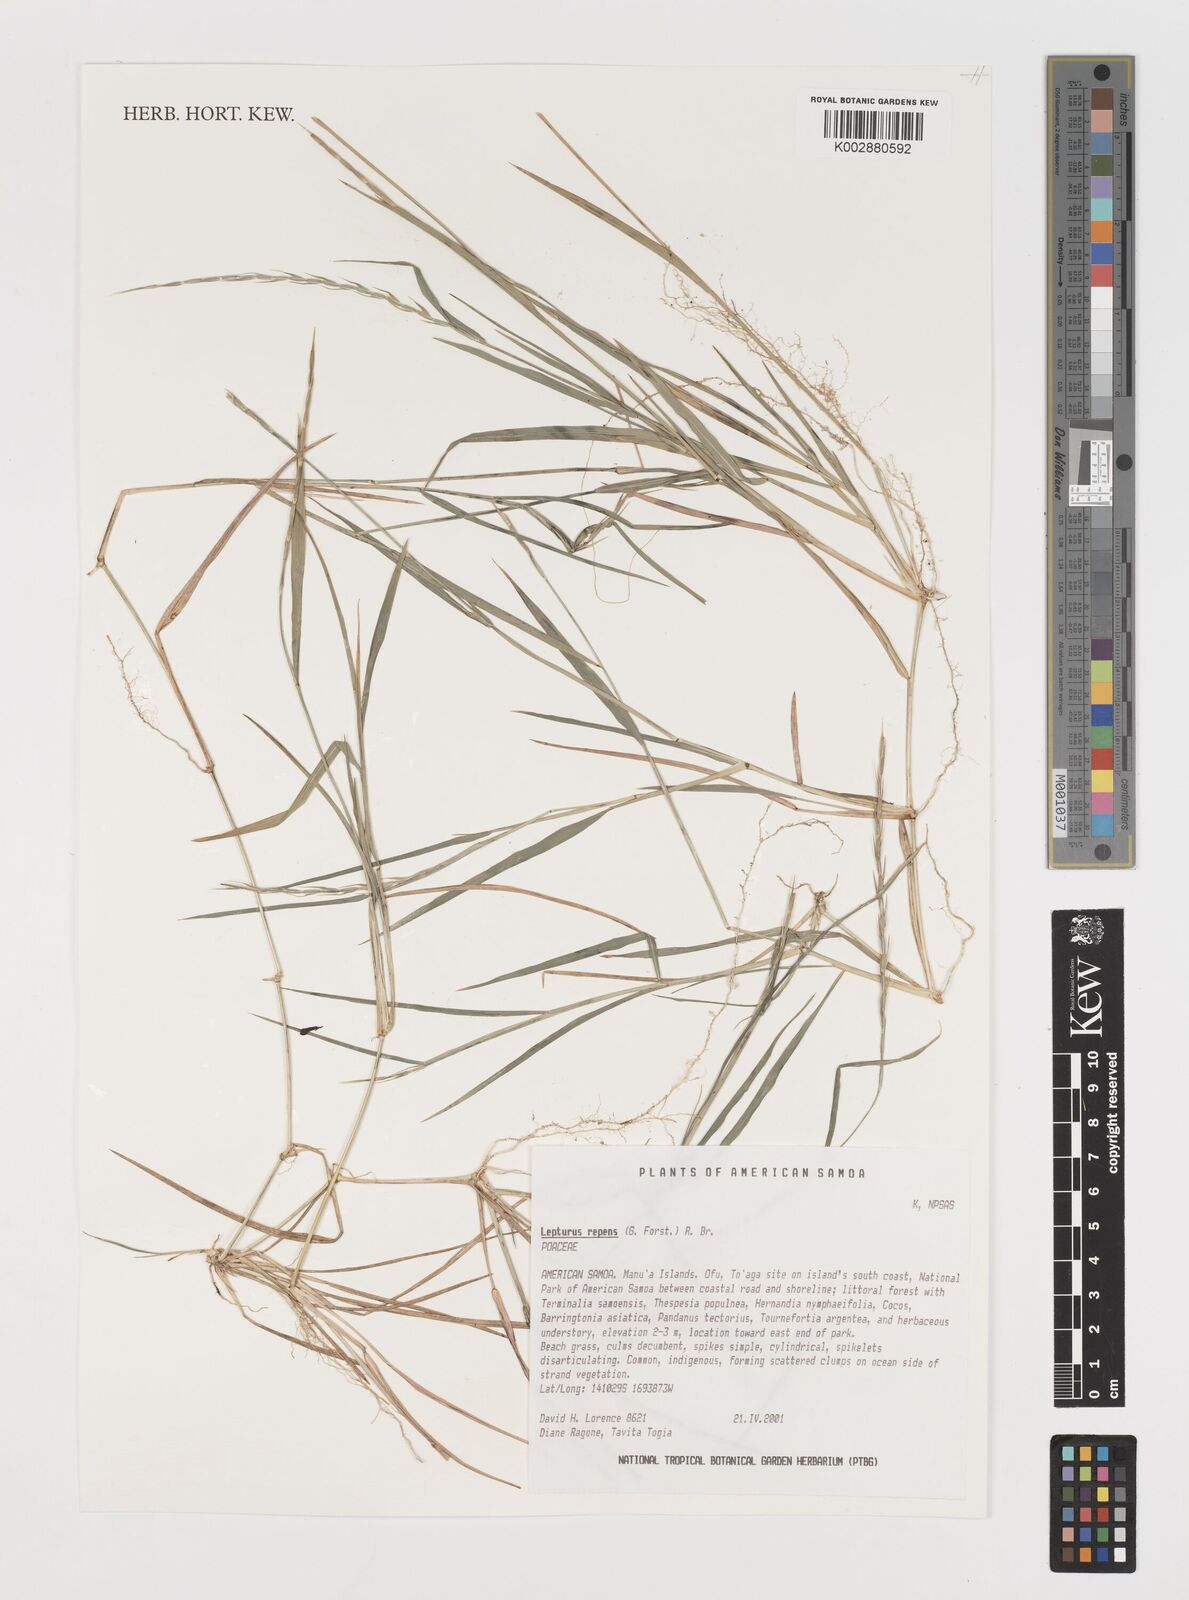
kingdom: Plantae
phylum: Tracheophyta
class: Liliopsida
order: Poales
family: Poaceae
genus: Lepturus
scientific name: Lepturus repens
